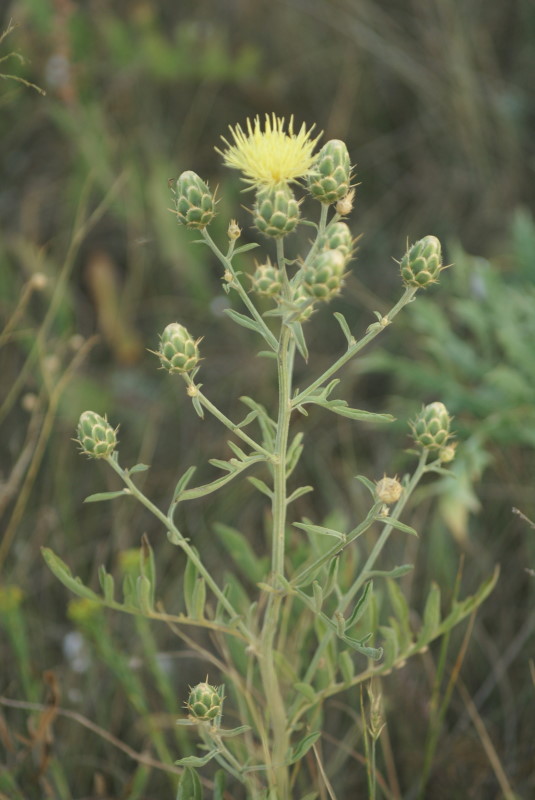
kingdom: Plantae
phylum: Tracheophyta
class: Magnoliopsida
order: Asterales
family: Asteraceae
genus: Centaurea
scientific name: Centaurea solstitialis
